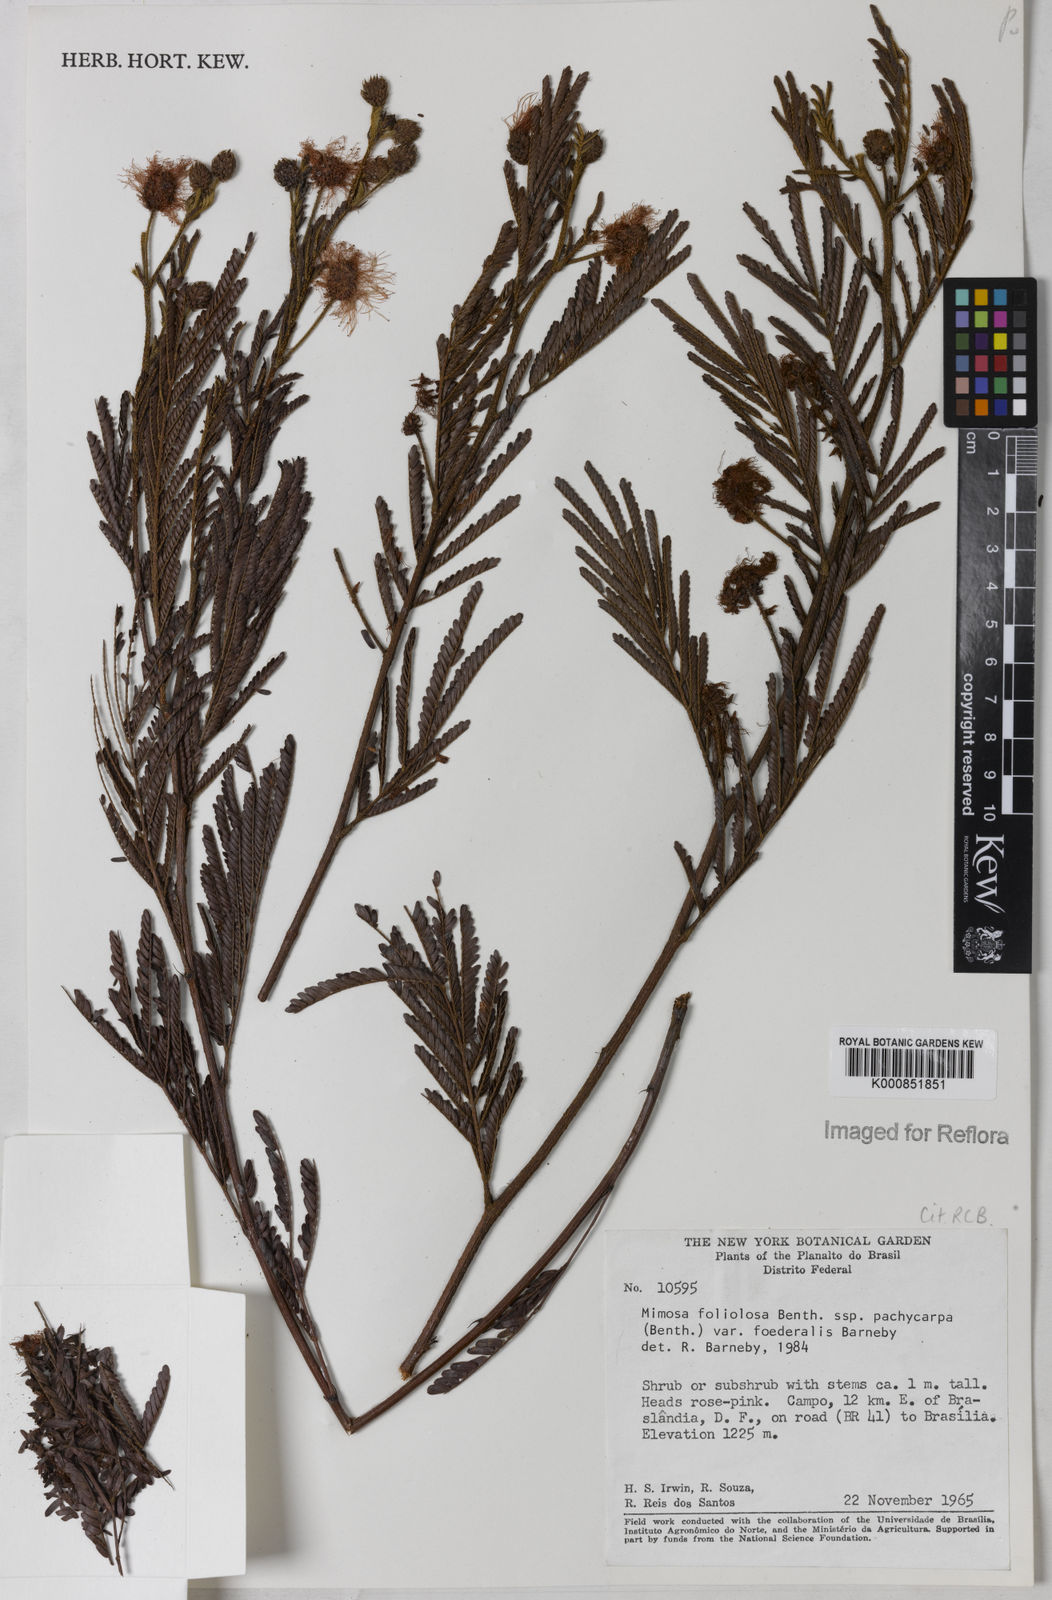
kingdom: Plantae
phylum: Tracheophyta
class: Magnoliopsida
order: Fabales
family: Fabaceae
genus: Mimosa
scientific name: Mimosa foliolosa
